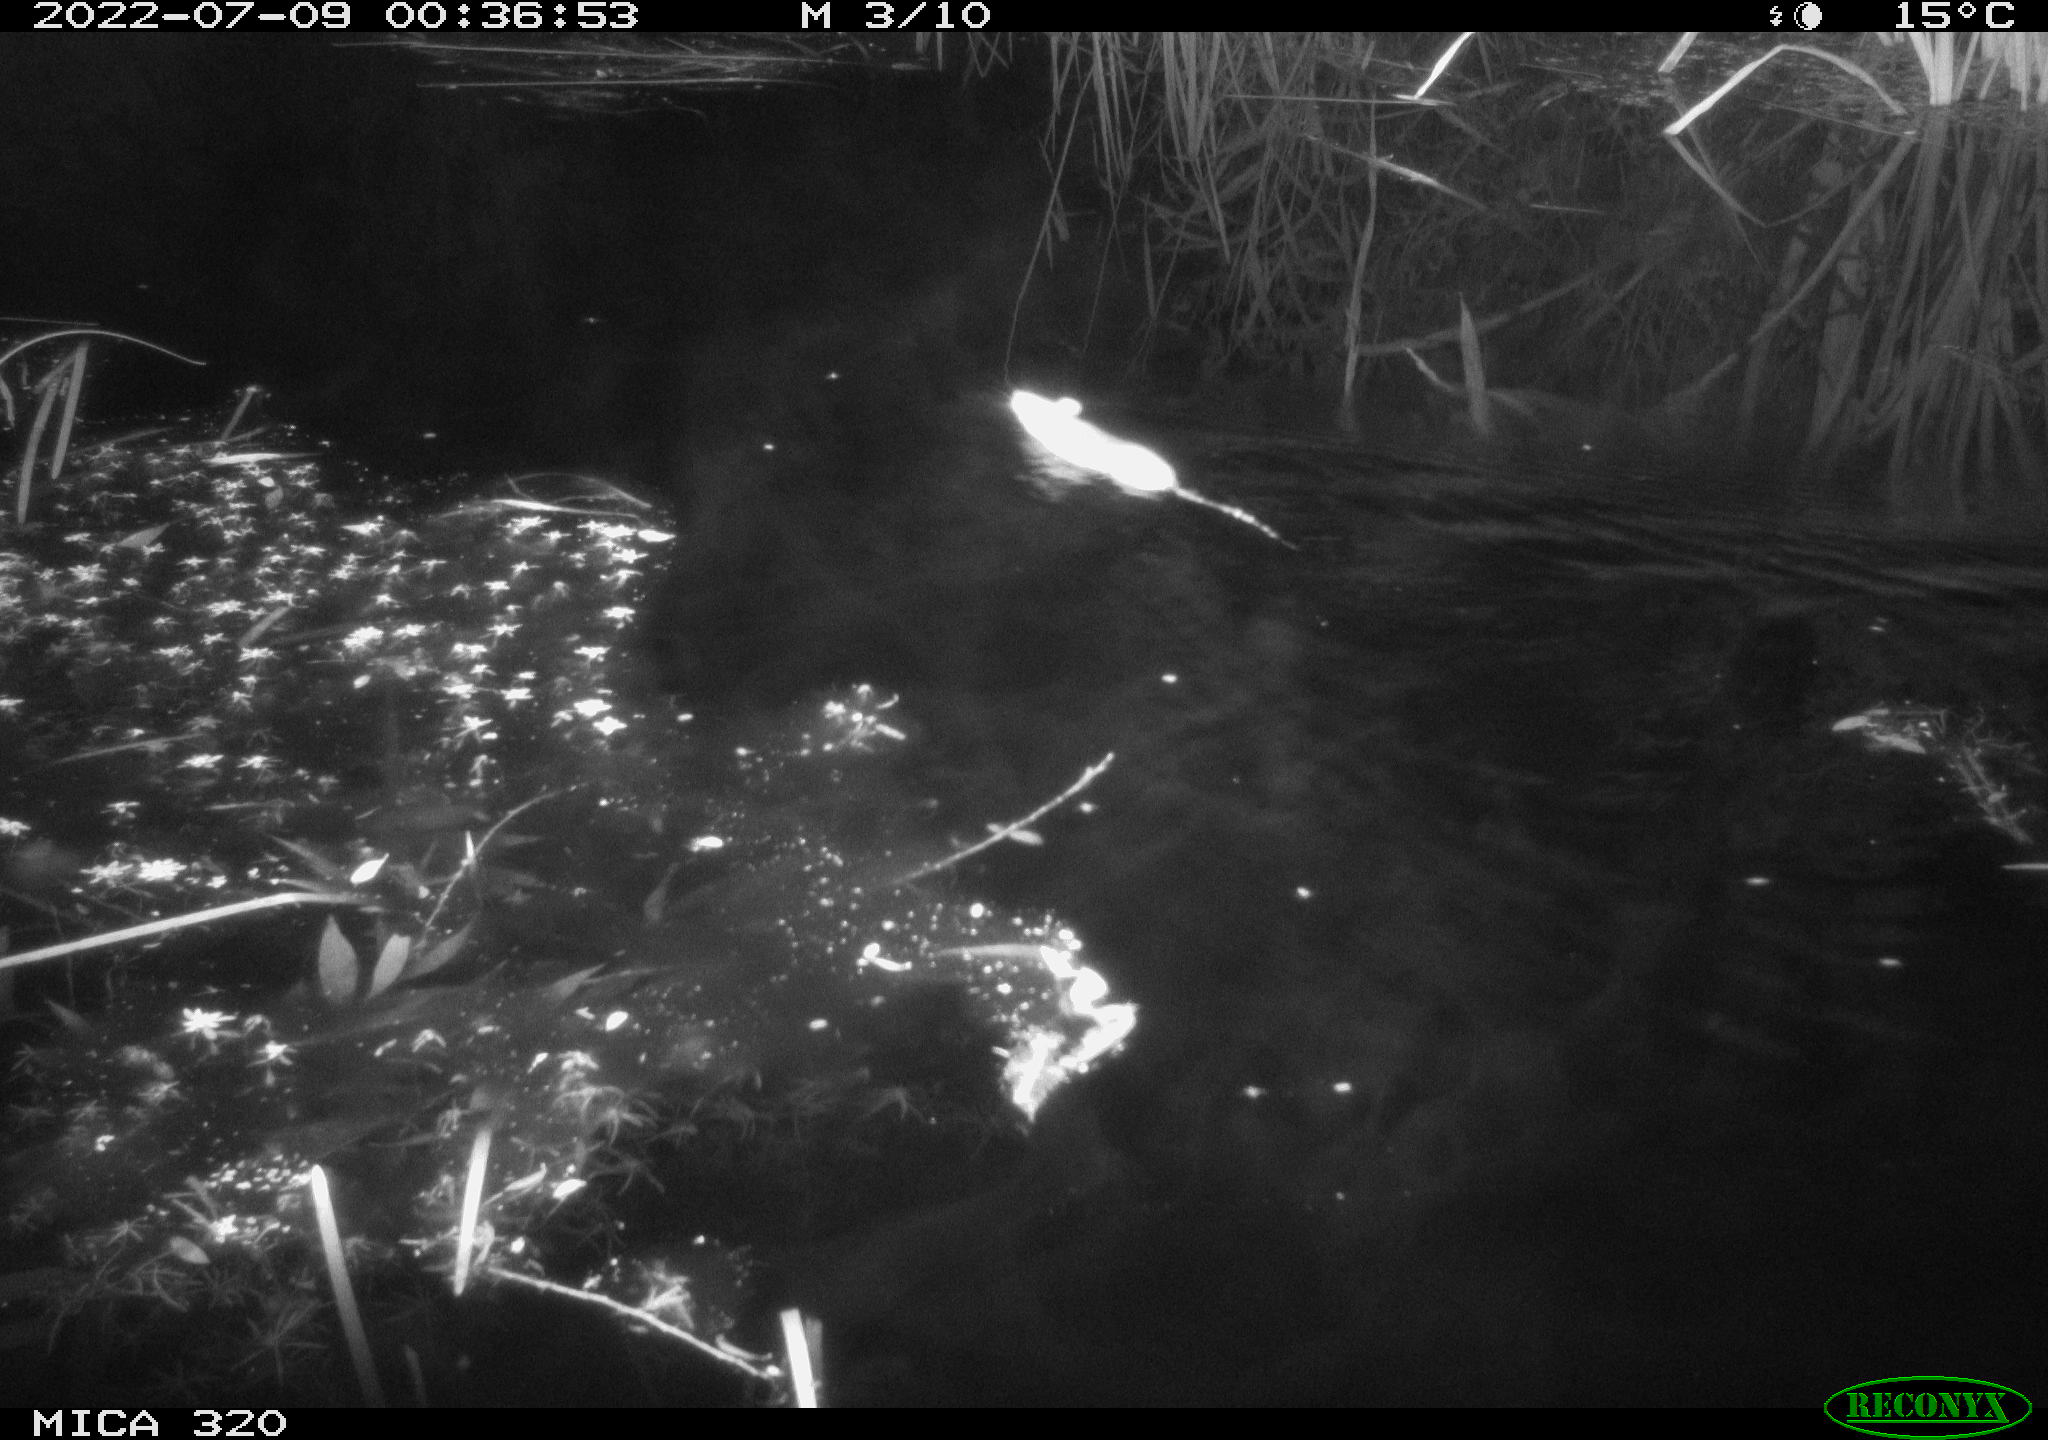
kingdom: Animalia
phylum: Chordata
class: Mammalia
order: Rodentia
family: Muridae
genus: Rattus
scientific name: Rattus norvegicus
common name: Brown rat
